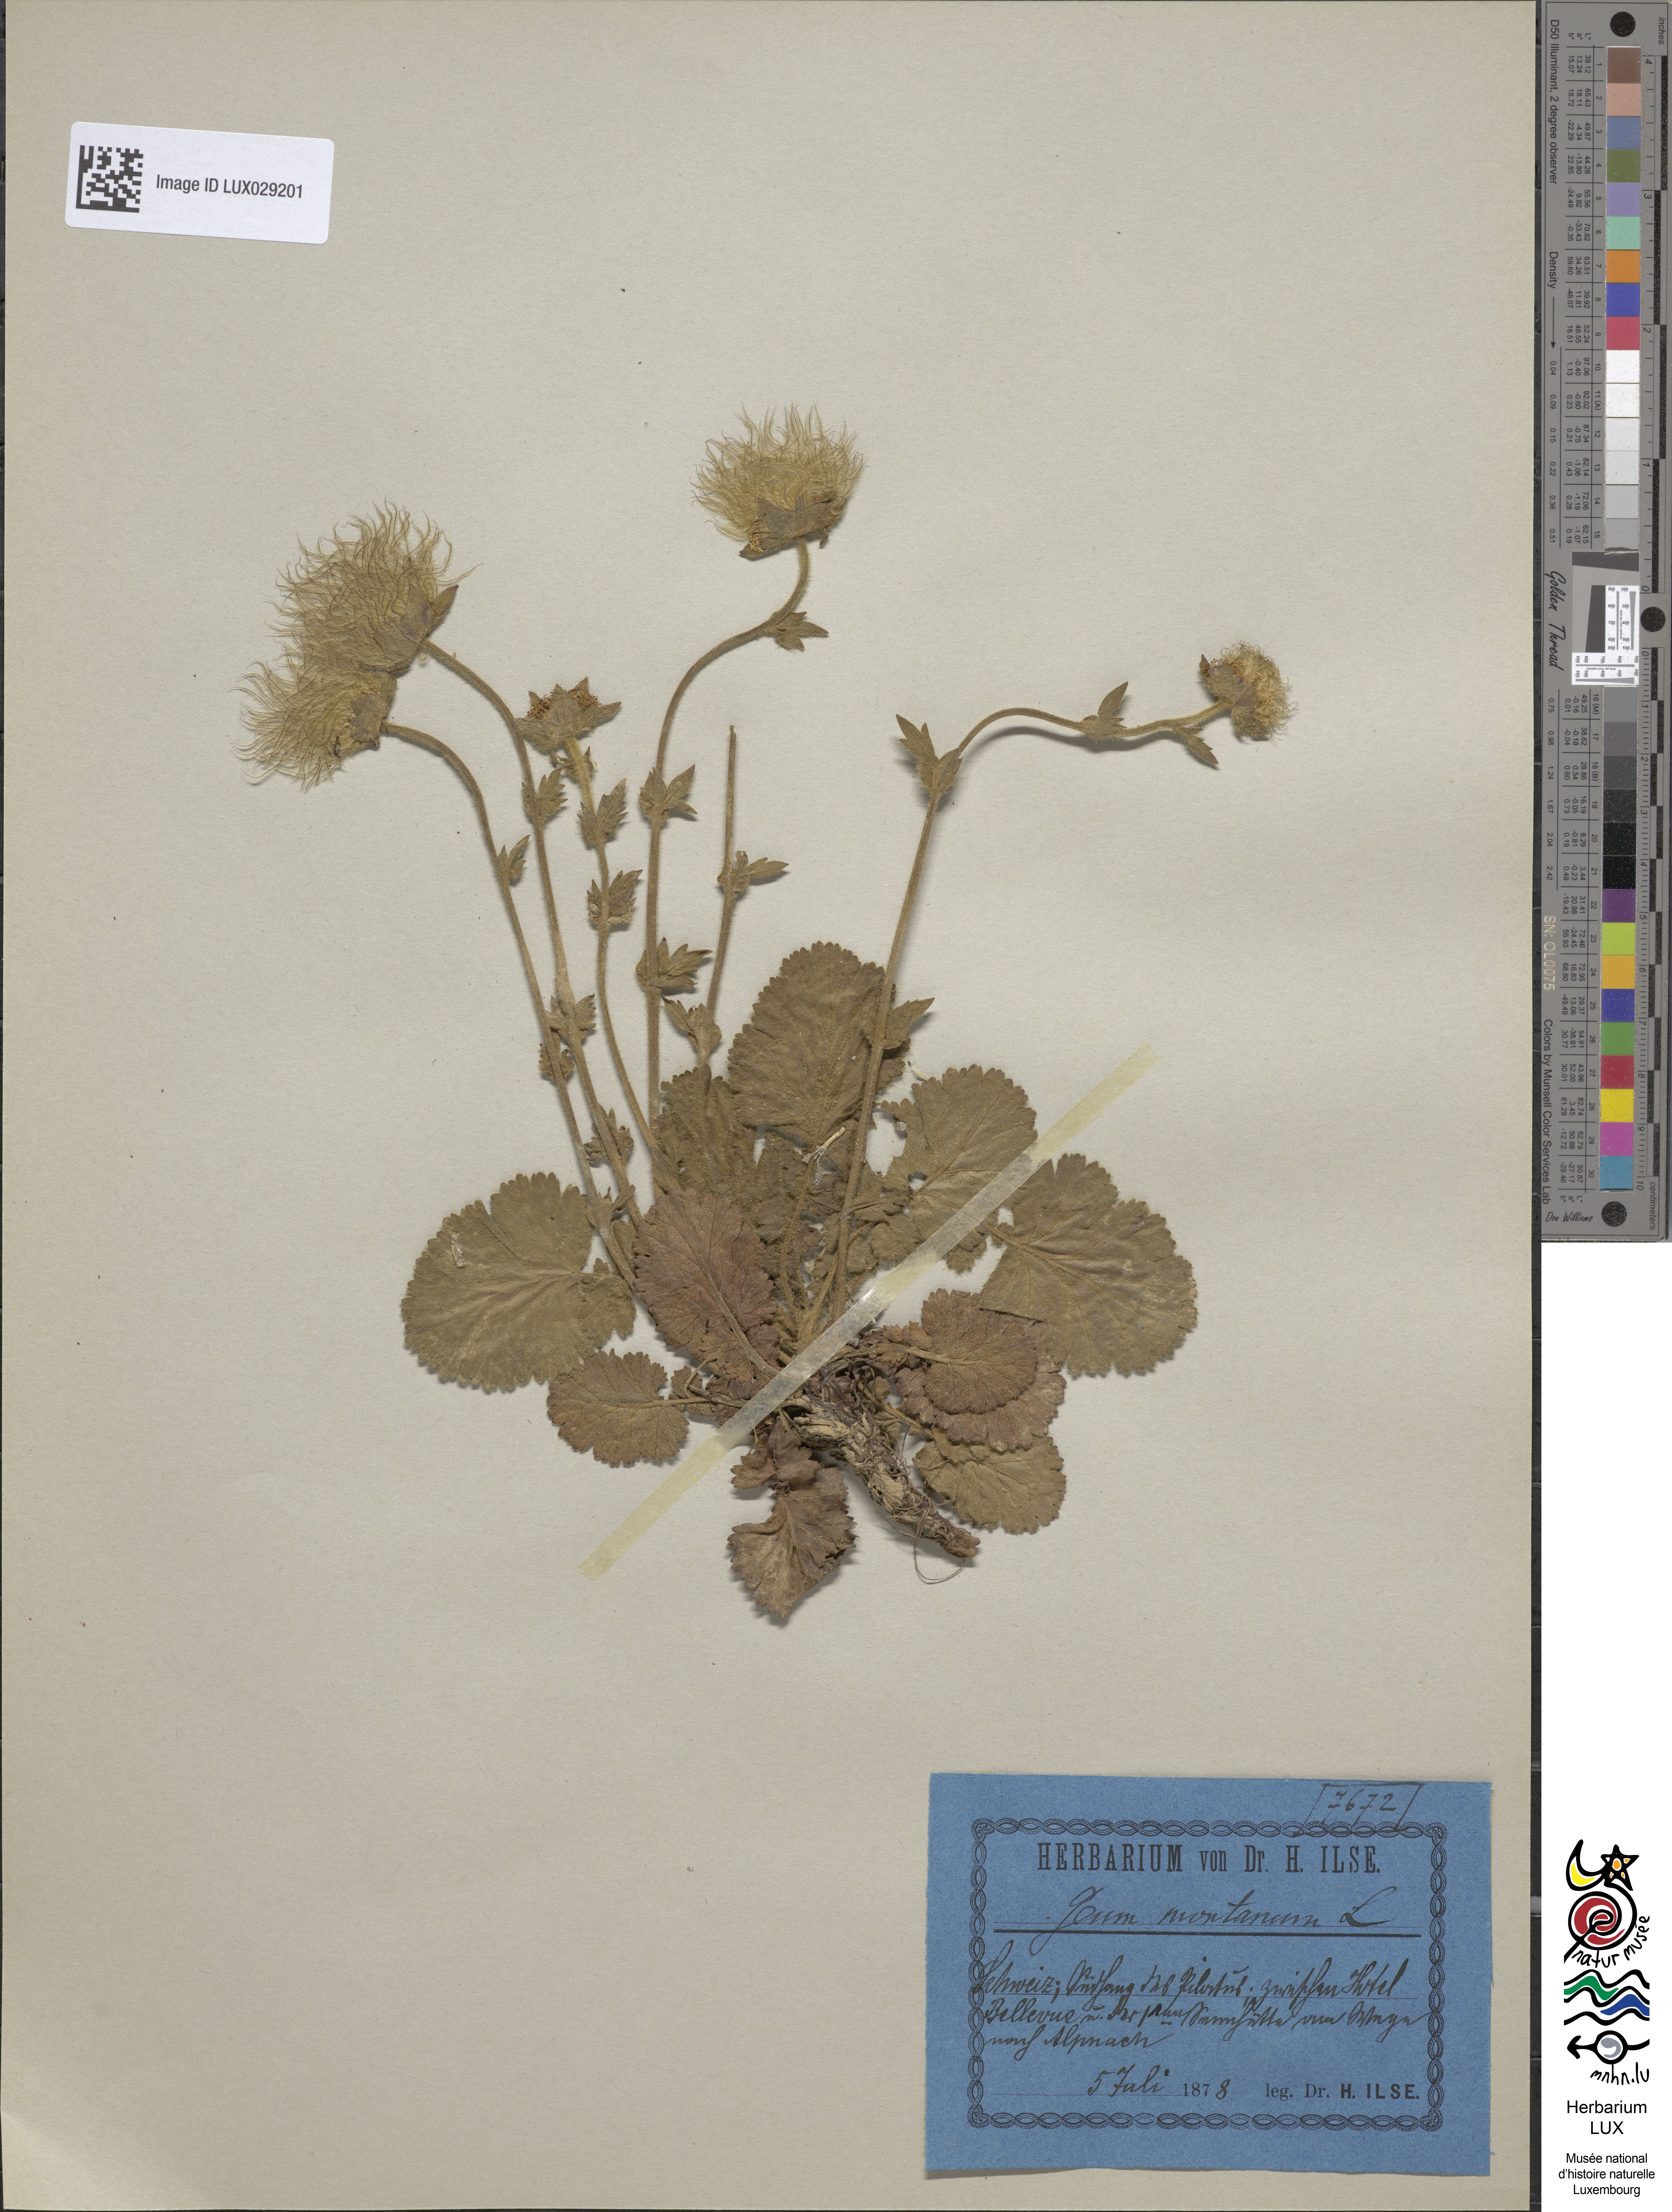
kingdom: Plantae
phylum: Tracheophyta
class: Magnoliopsida
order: Rosales
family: Rosaceae
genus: Geum
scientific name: Geum montanum
